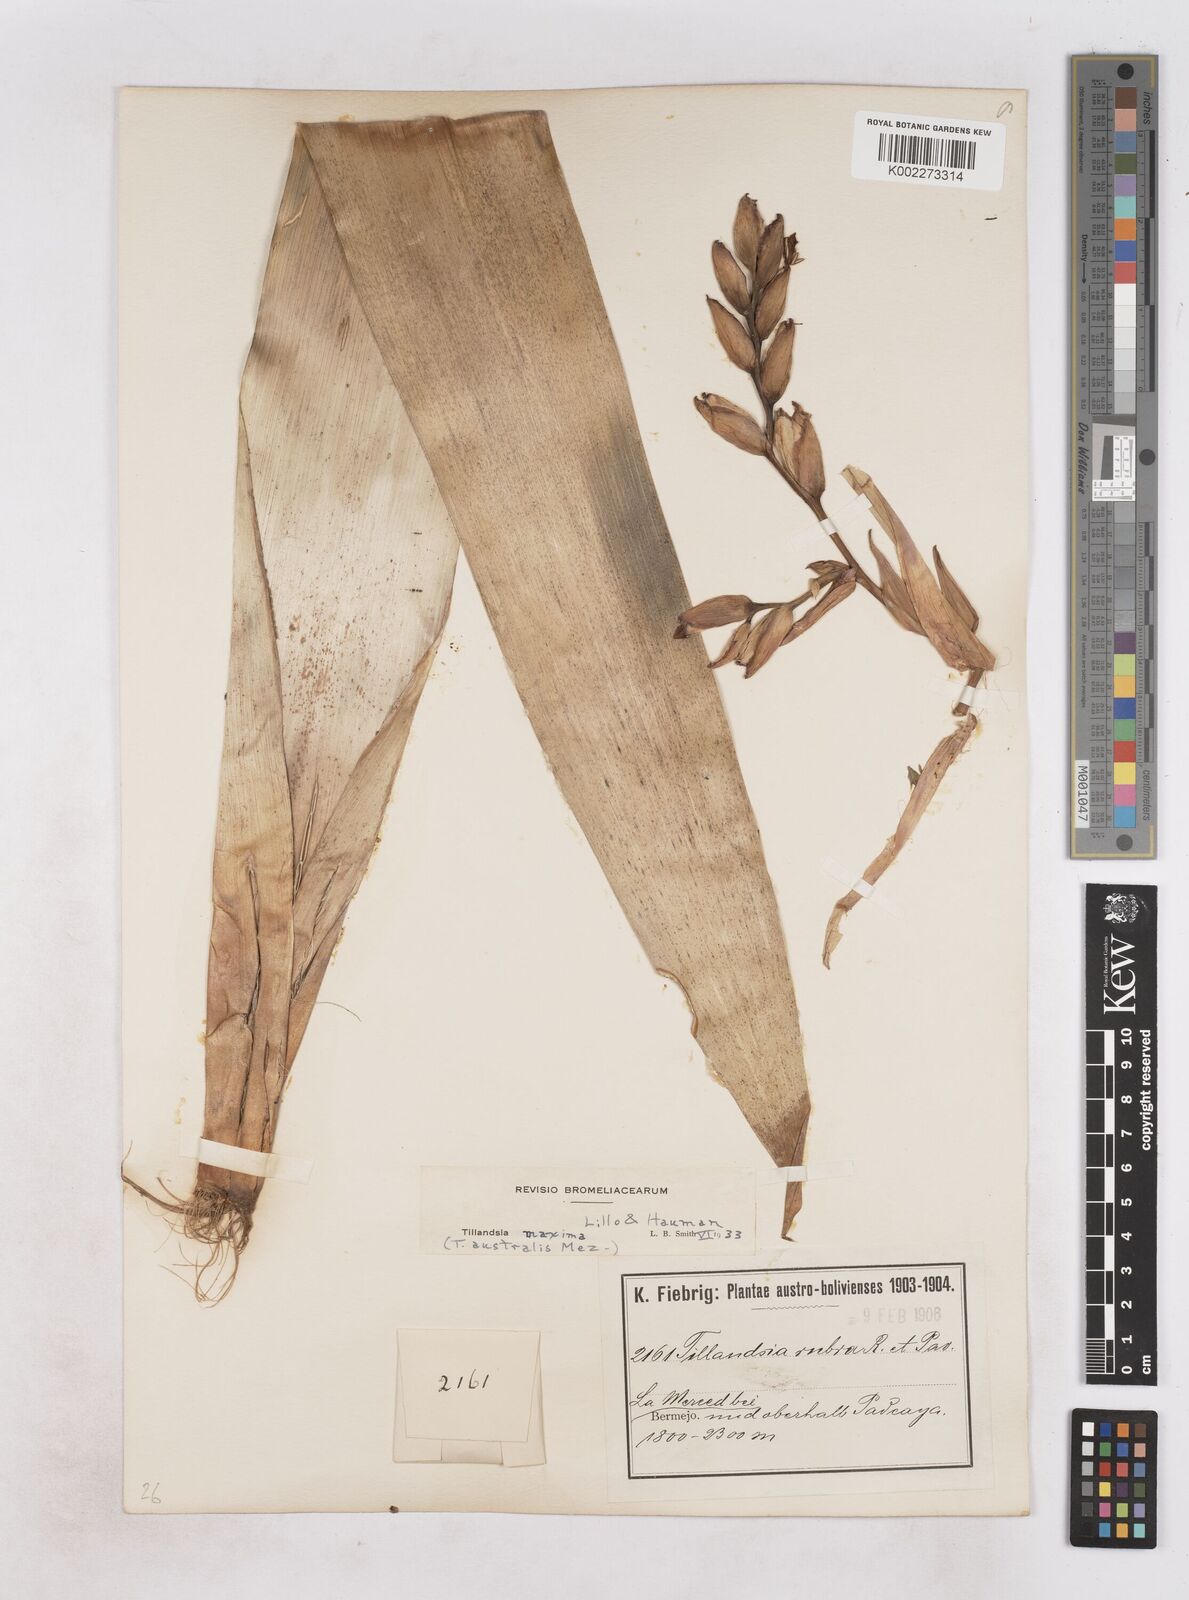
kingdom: Plantae
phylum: Tracheophyta
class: Liliopsida
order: Poales
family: Bromeliaceae
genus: Tillandsia
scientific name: Tillandsia australis
